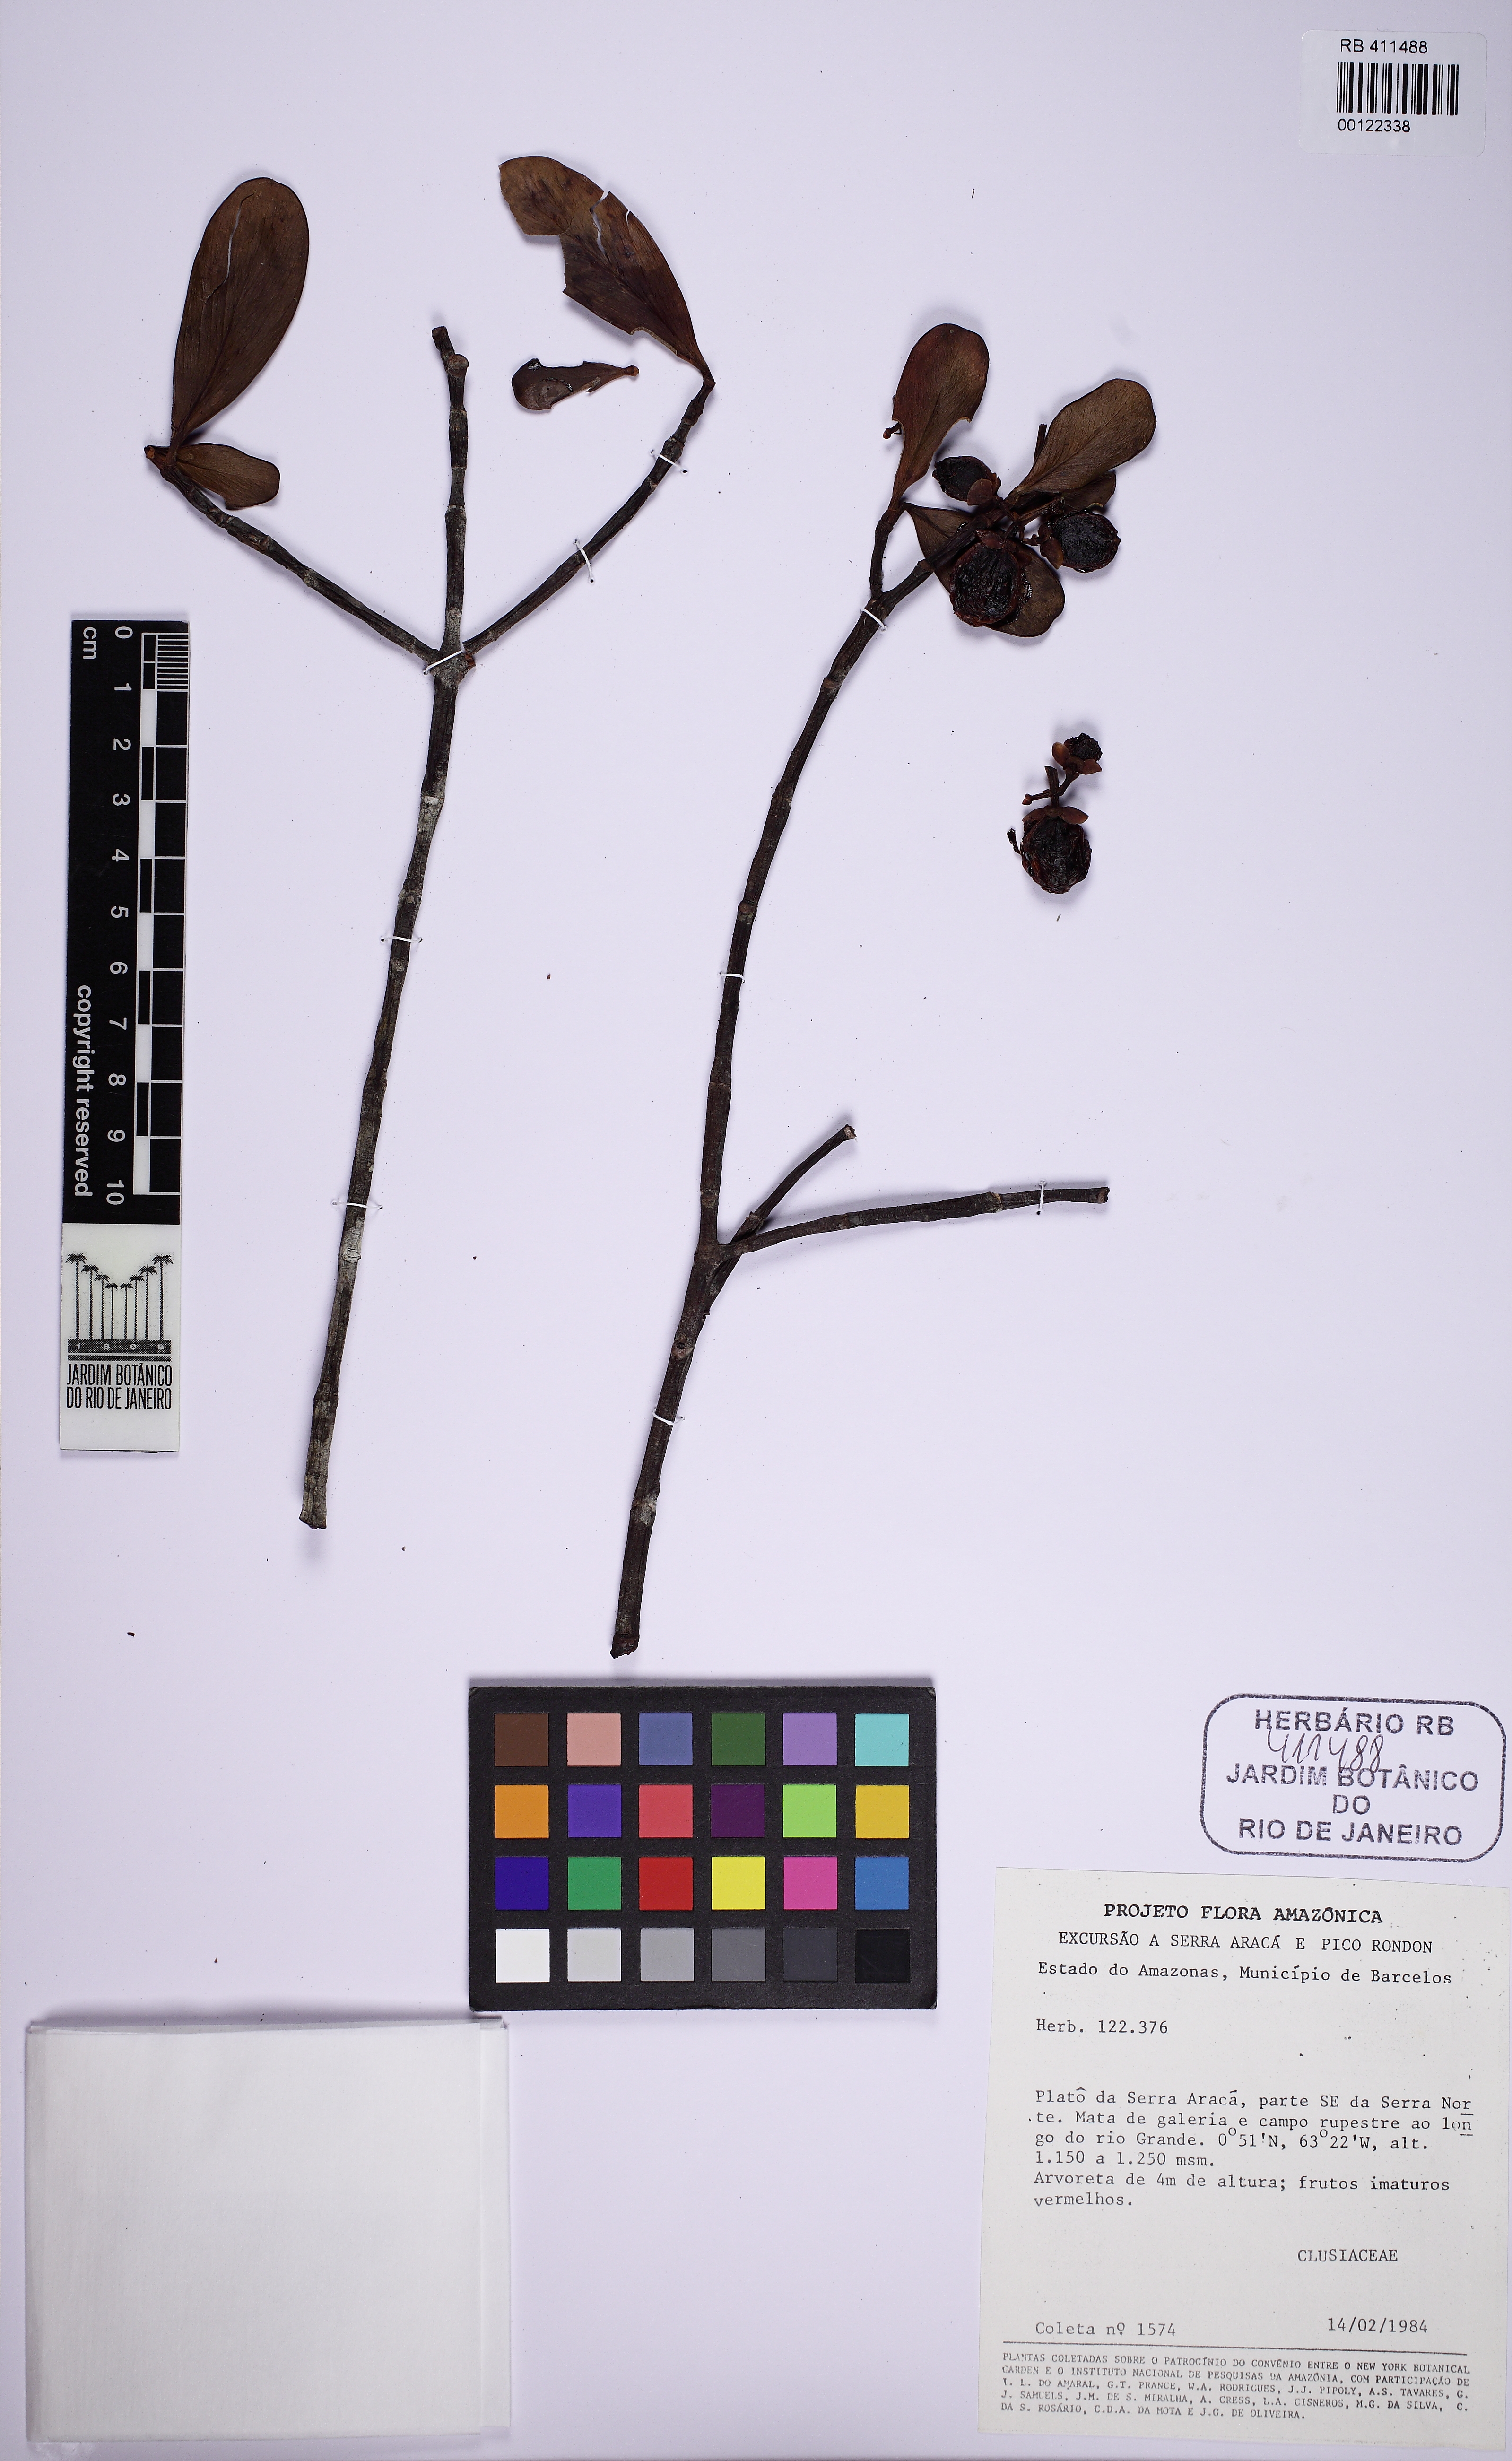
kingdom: Plantae
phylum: Tracheophyta
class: Magnoliopsida
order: Malpighiales
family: Clusiaceae
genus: Clusia
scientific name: Clusia huberi
